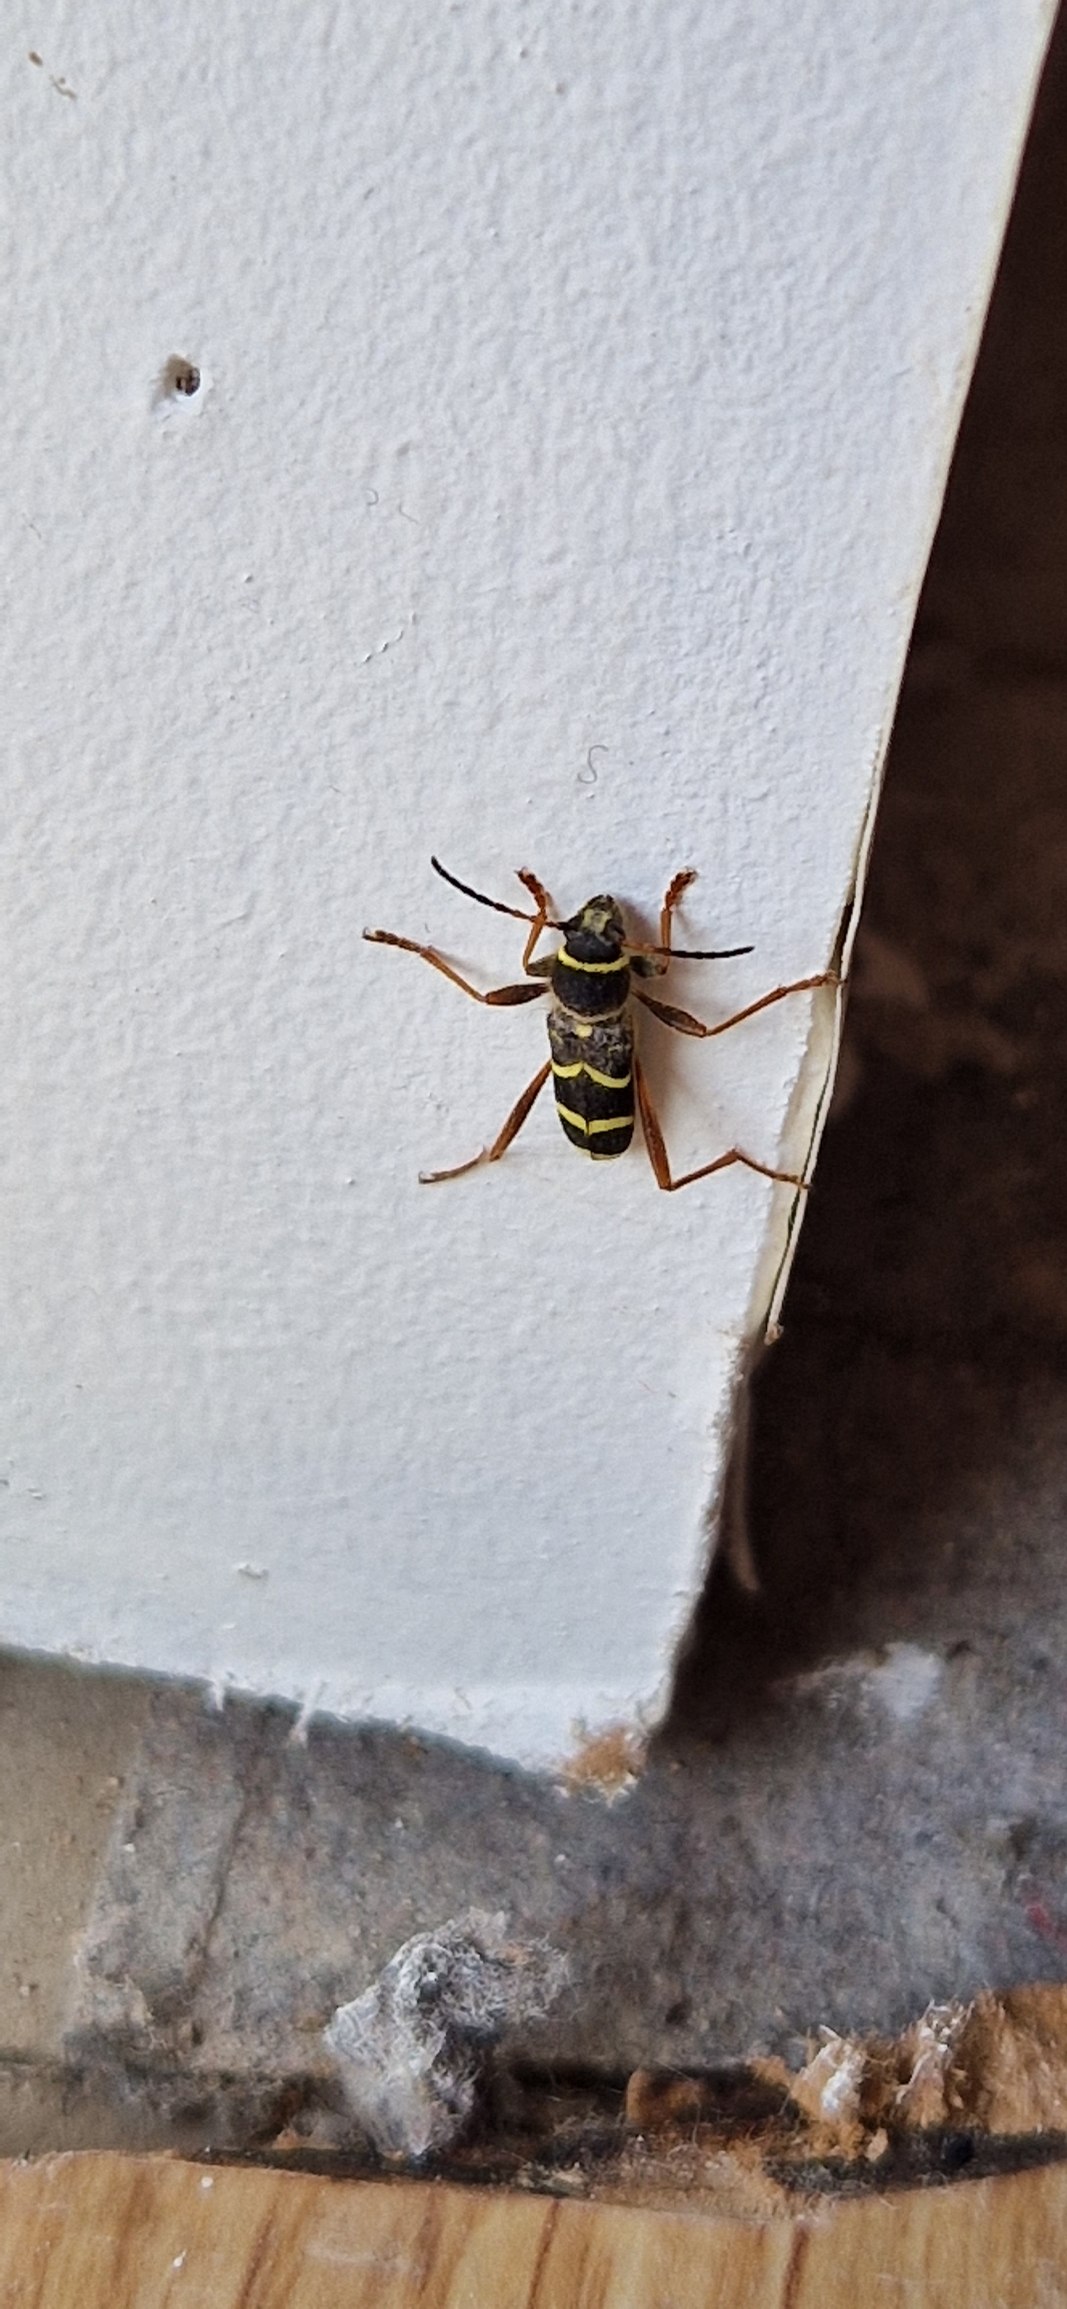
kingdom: Animalia
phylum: Arthropoda
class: Insecta
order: Coleoptera
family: Cerambycidae
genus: Clytus
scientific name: Clytus arietis
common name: Lille hvepsebuk
